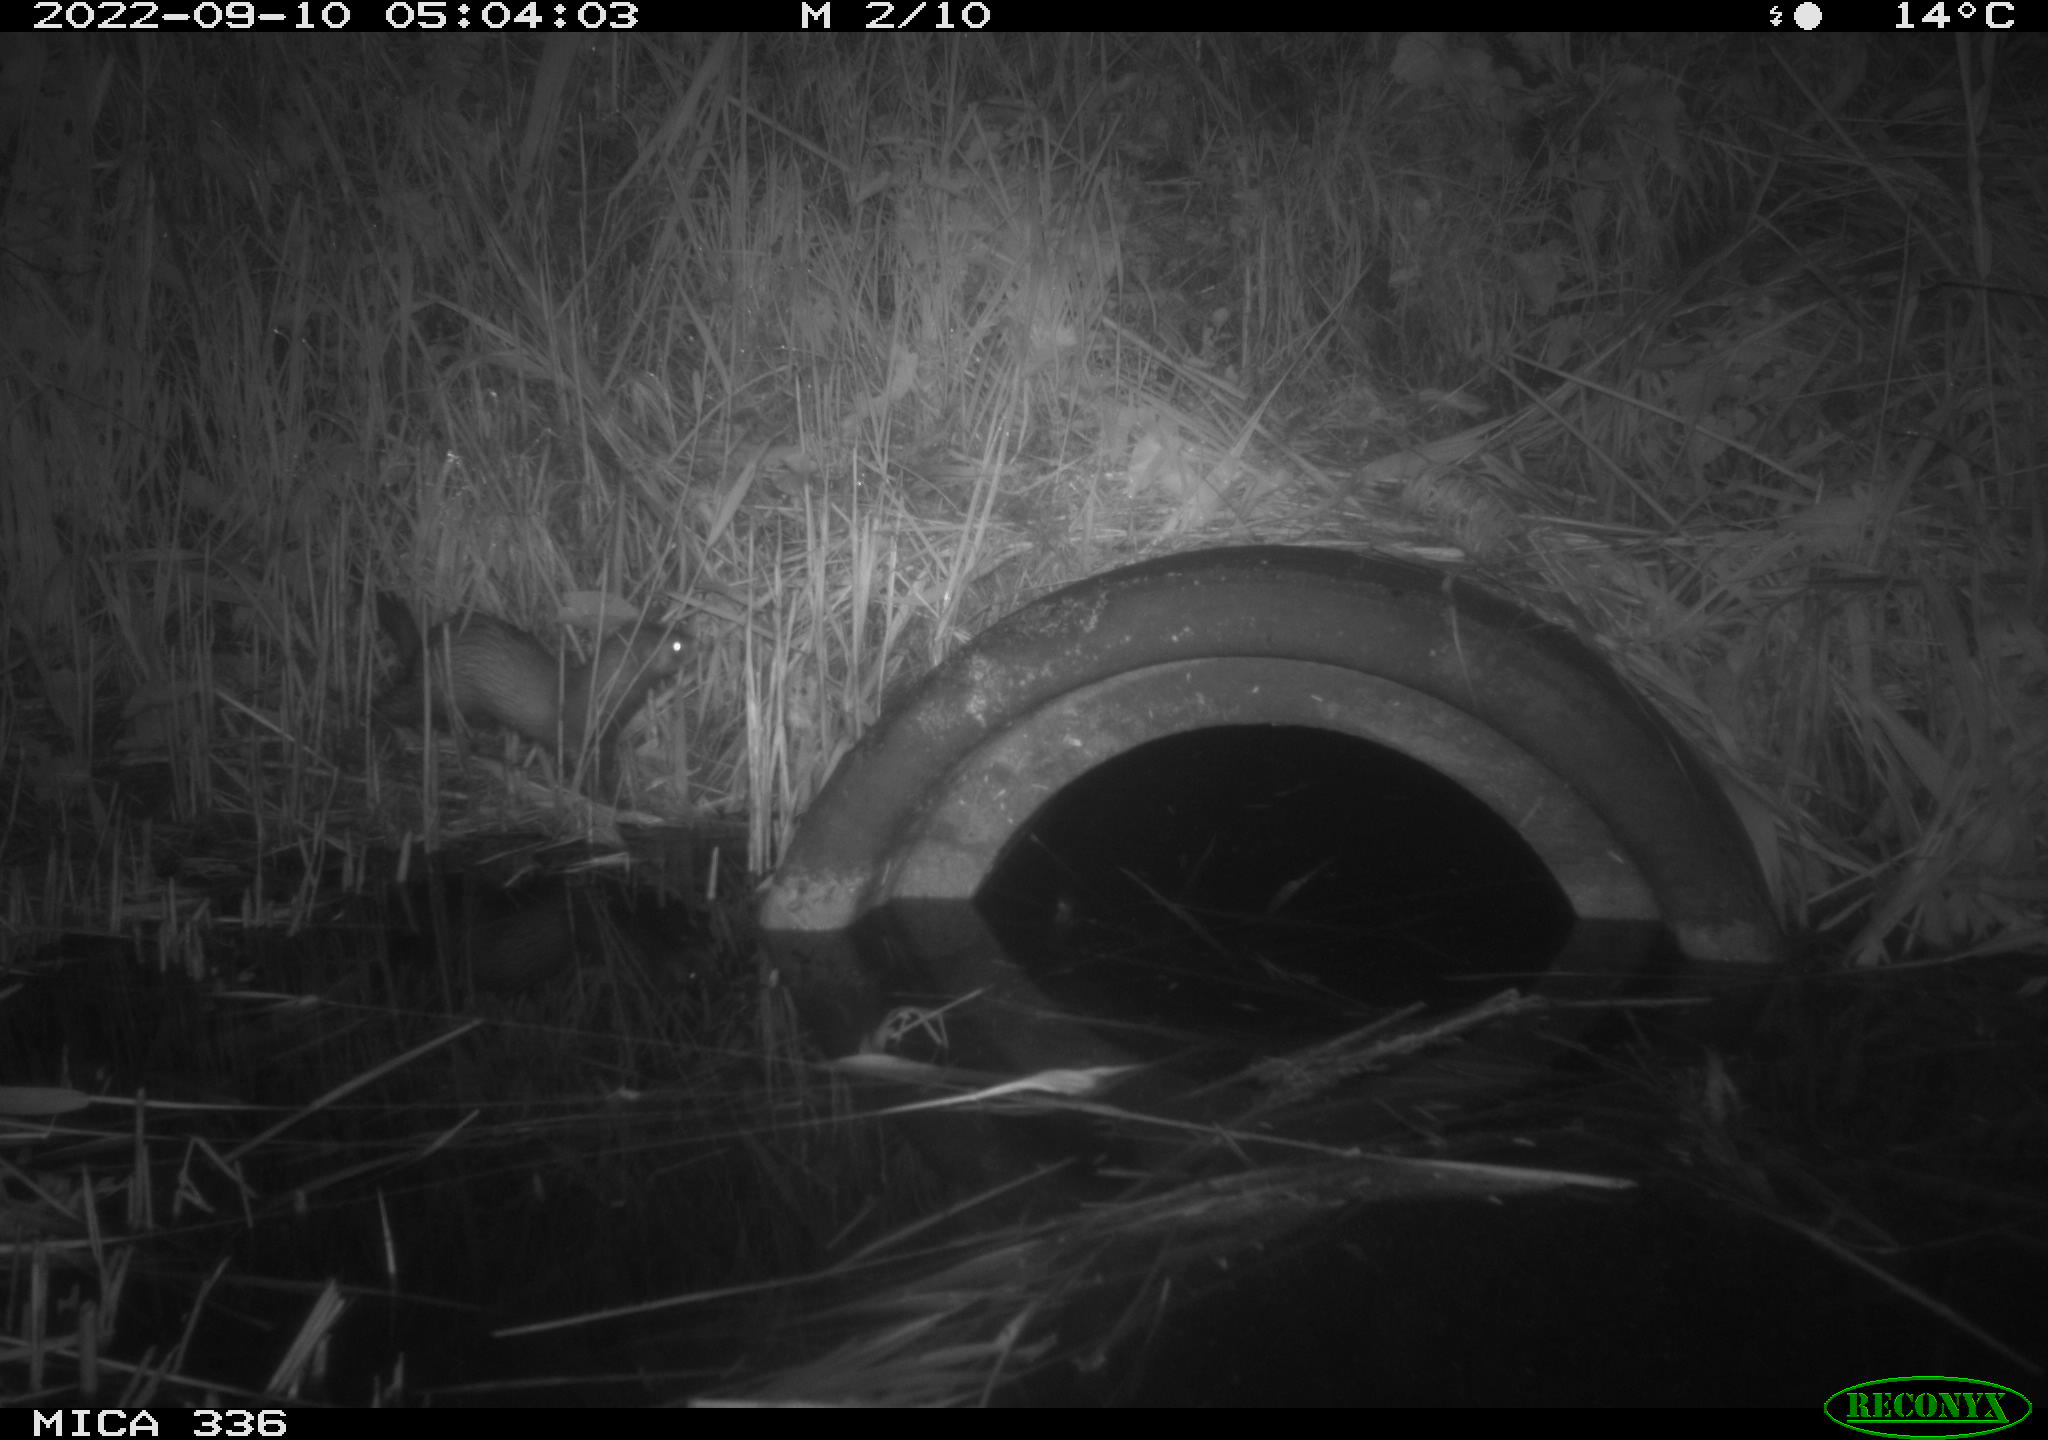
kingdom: Animalia
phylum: Chordata
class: Mammalia
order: Carnivora
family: Mustelidae
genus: Mustela
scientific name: Mustela putorius
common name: European polecat
